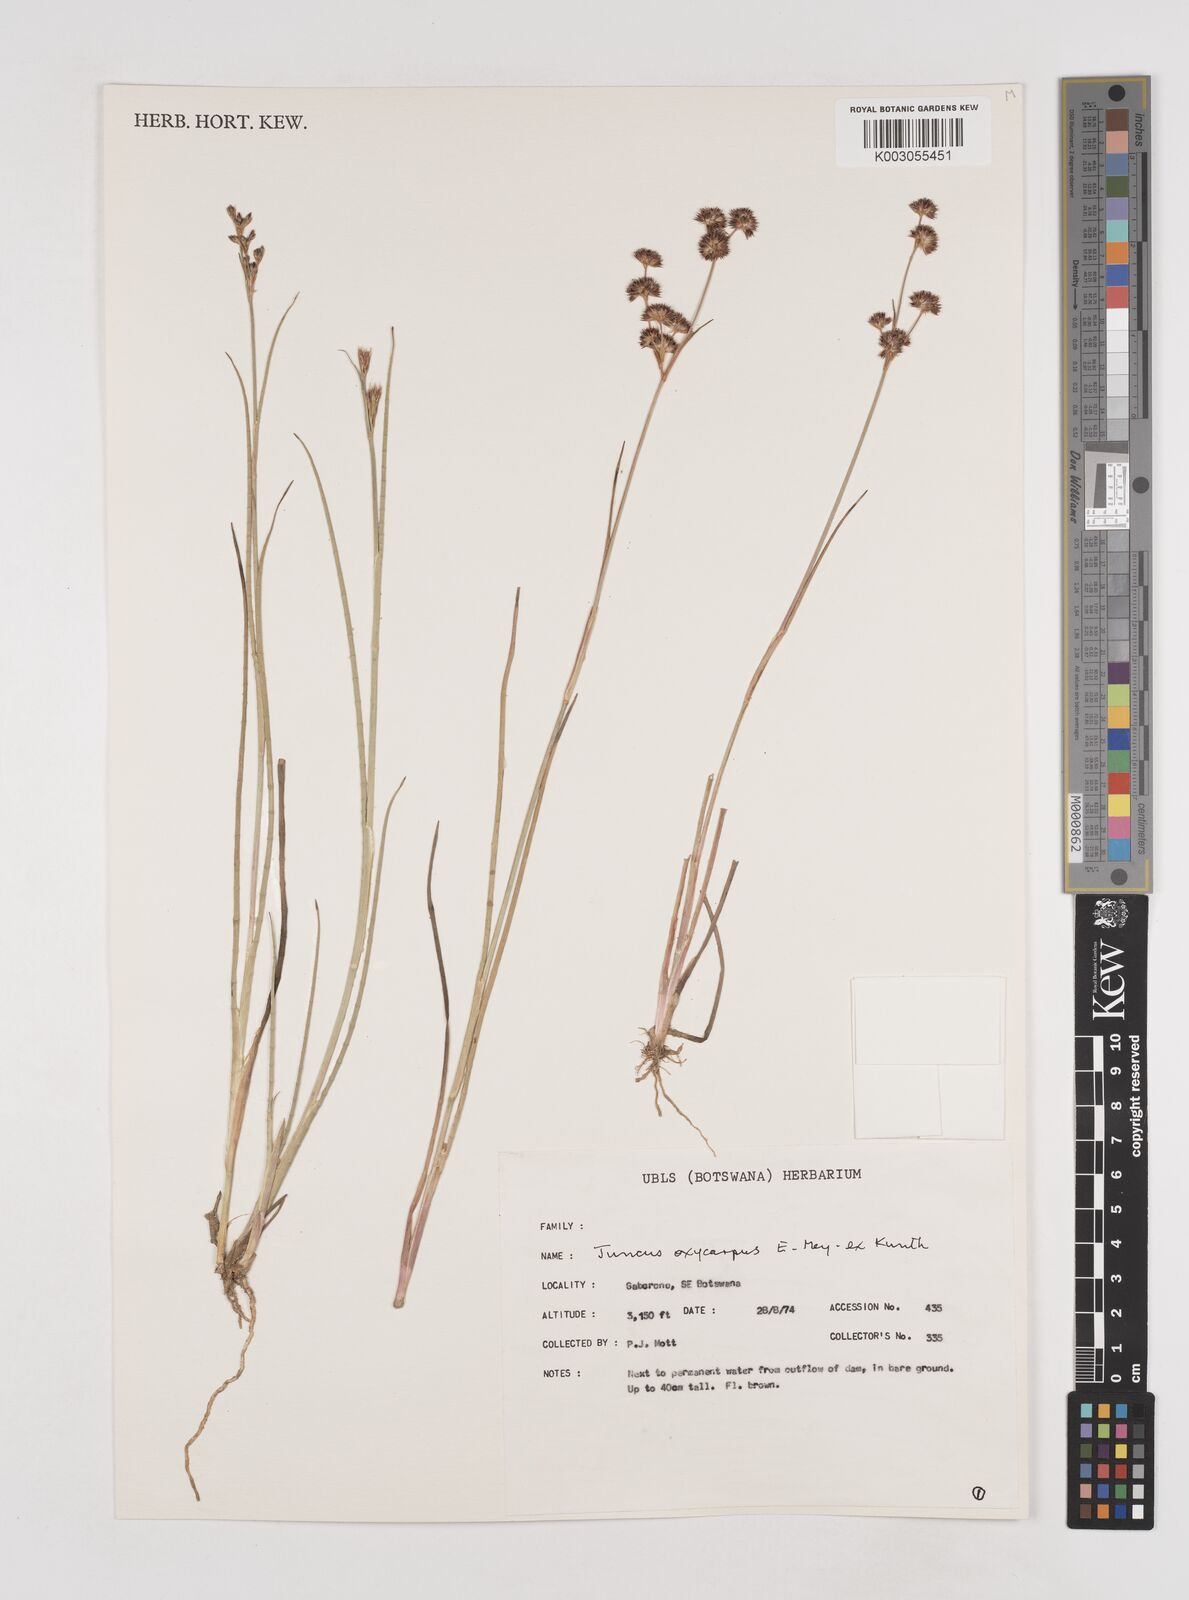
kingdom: Plantae
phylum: Tracheophyta
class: Liliopsida
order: Poales
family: Juncaceae
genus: Juncus
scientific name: Juncus oxycarpus
